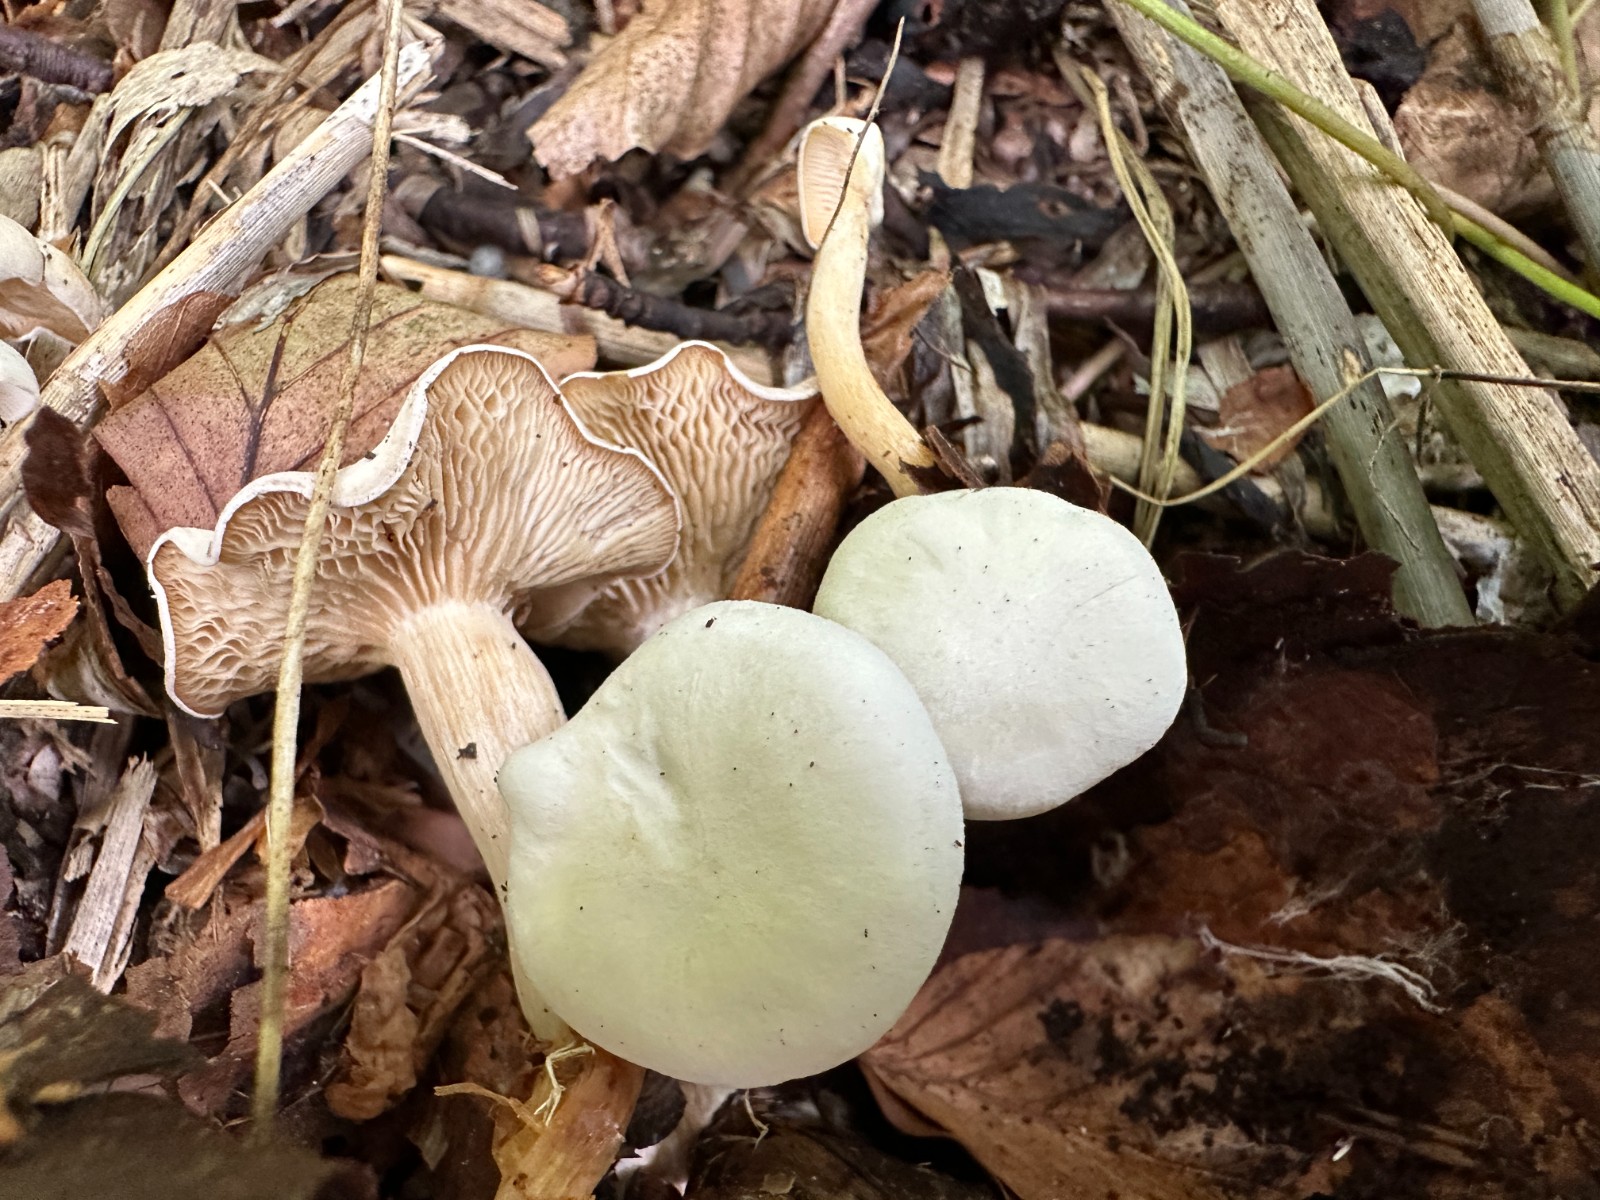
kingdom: Fungi
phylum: Basidiomycota
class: Agaricomycetes
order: Agaricales
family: Tricholomataceae
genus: Ripartites
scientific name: Ripartites tricholoma
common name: almindelig skæghat
